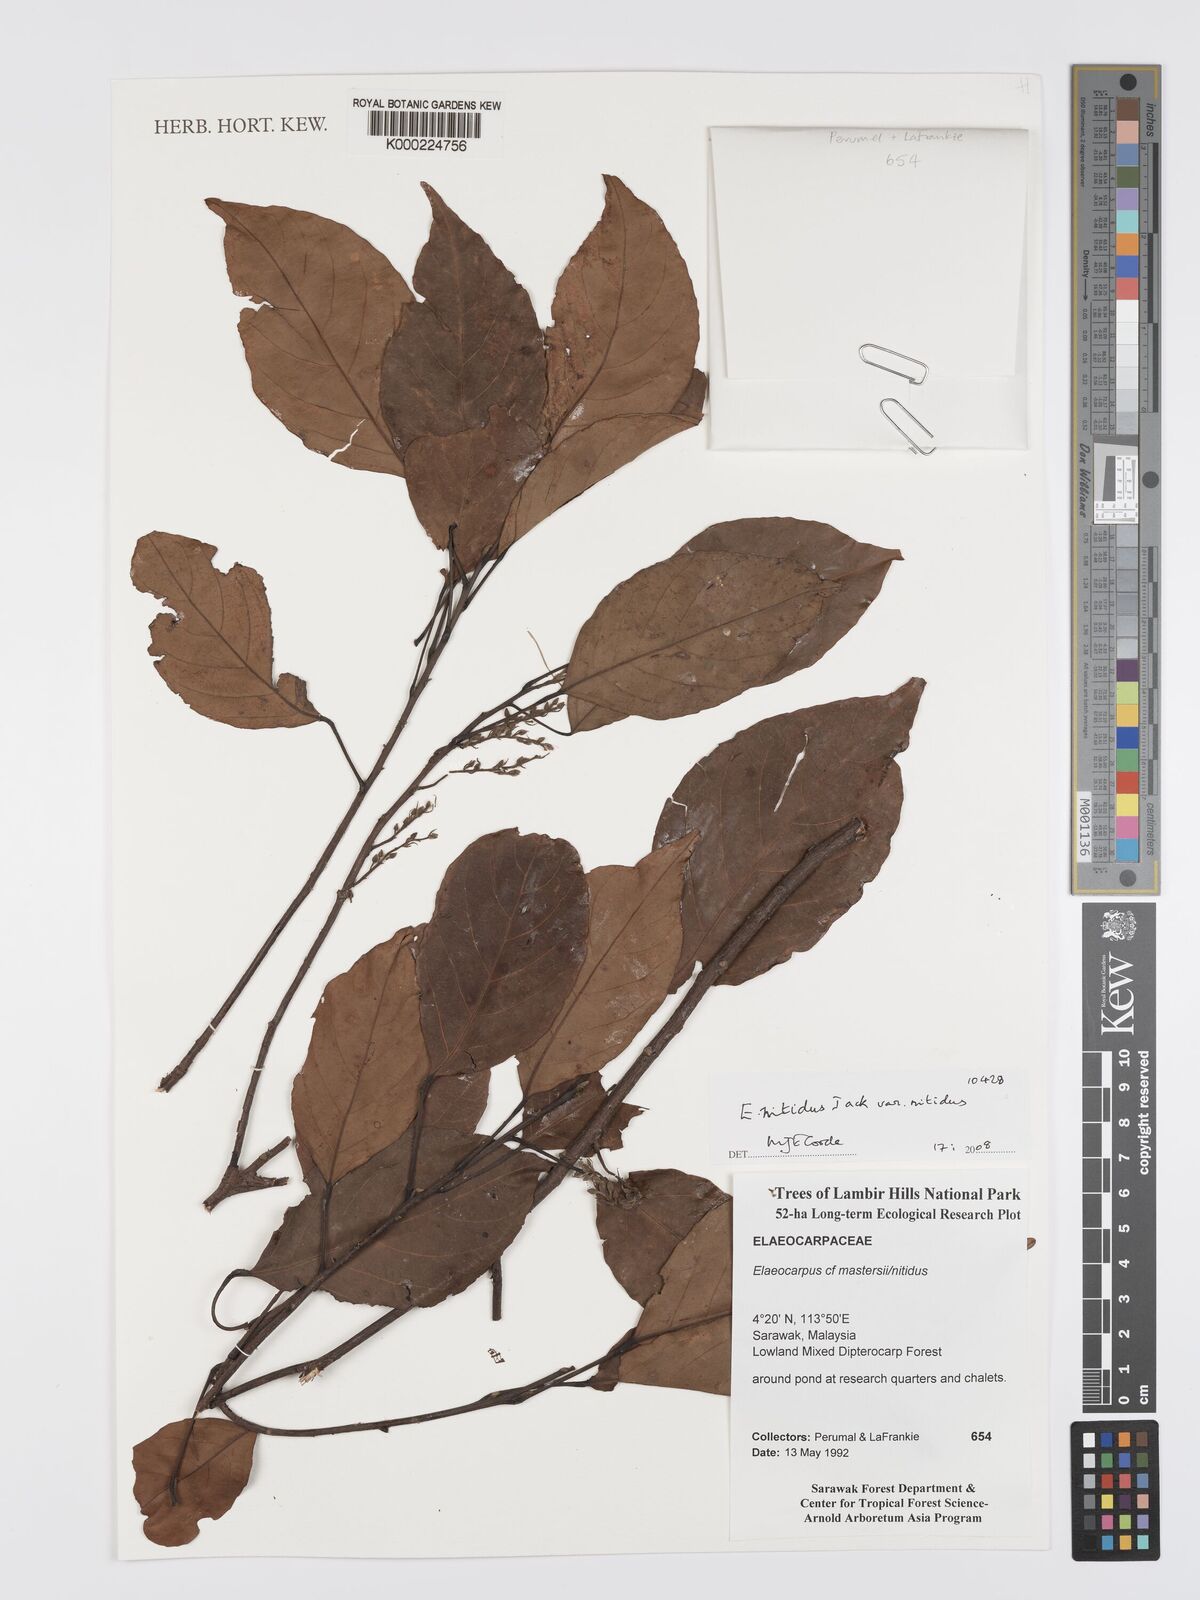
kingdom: Plantae
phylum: Tracheophyta
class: Magnoliopsida
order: Oxalidales
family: Elaeocarpaceae
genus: Elaeocarpus
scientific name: Elaeocarpus nitidus
